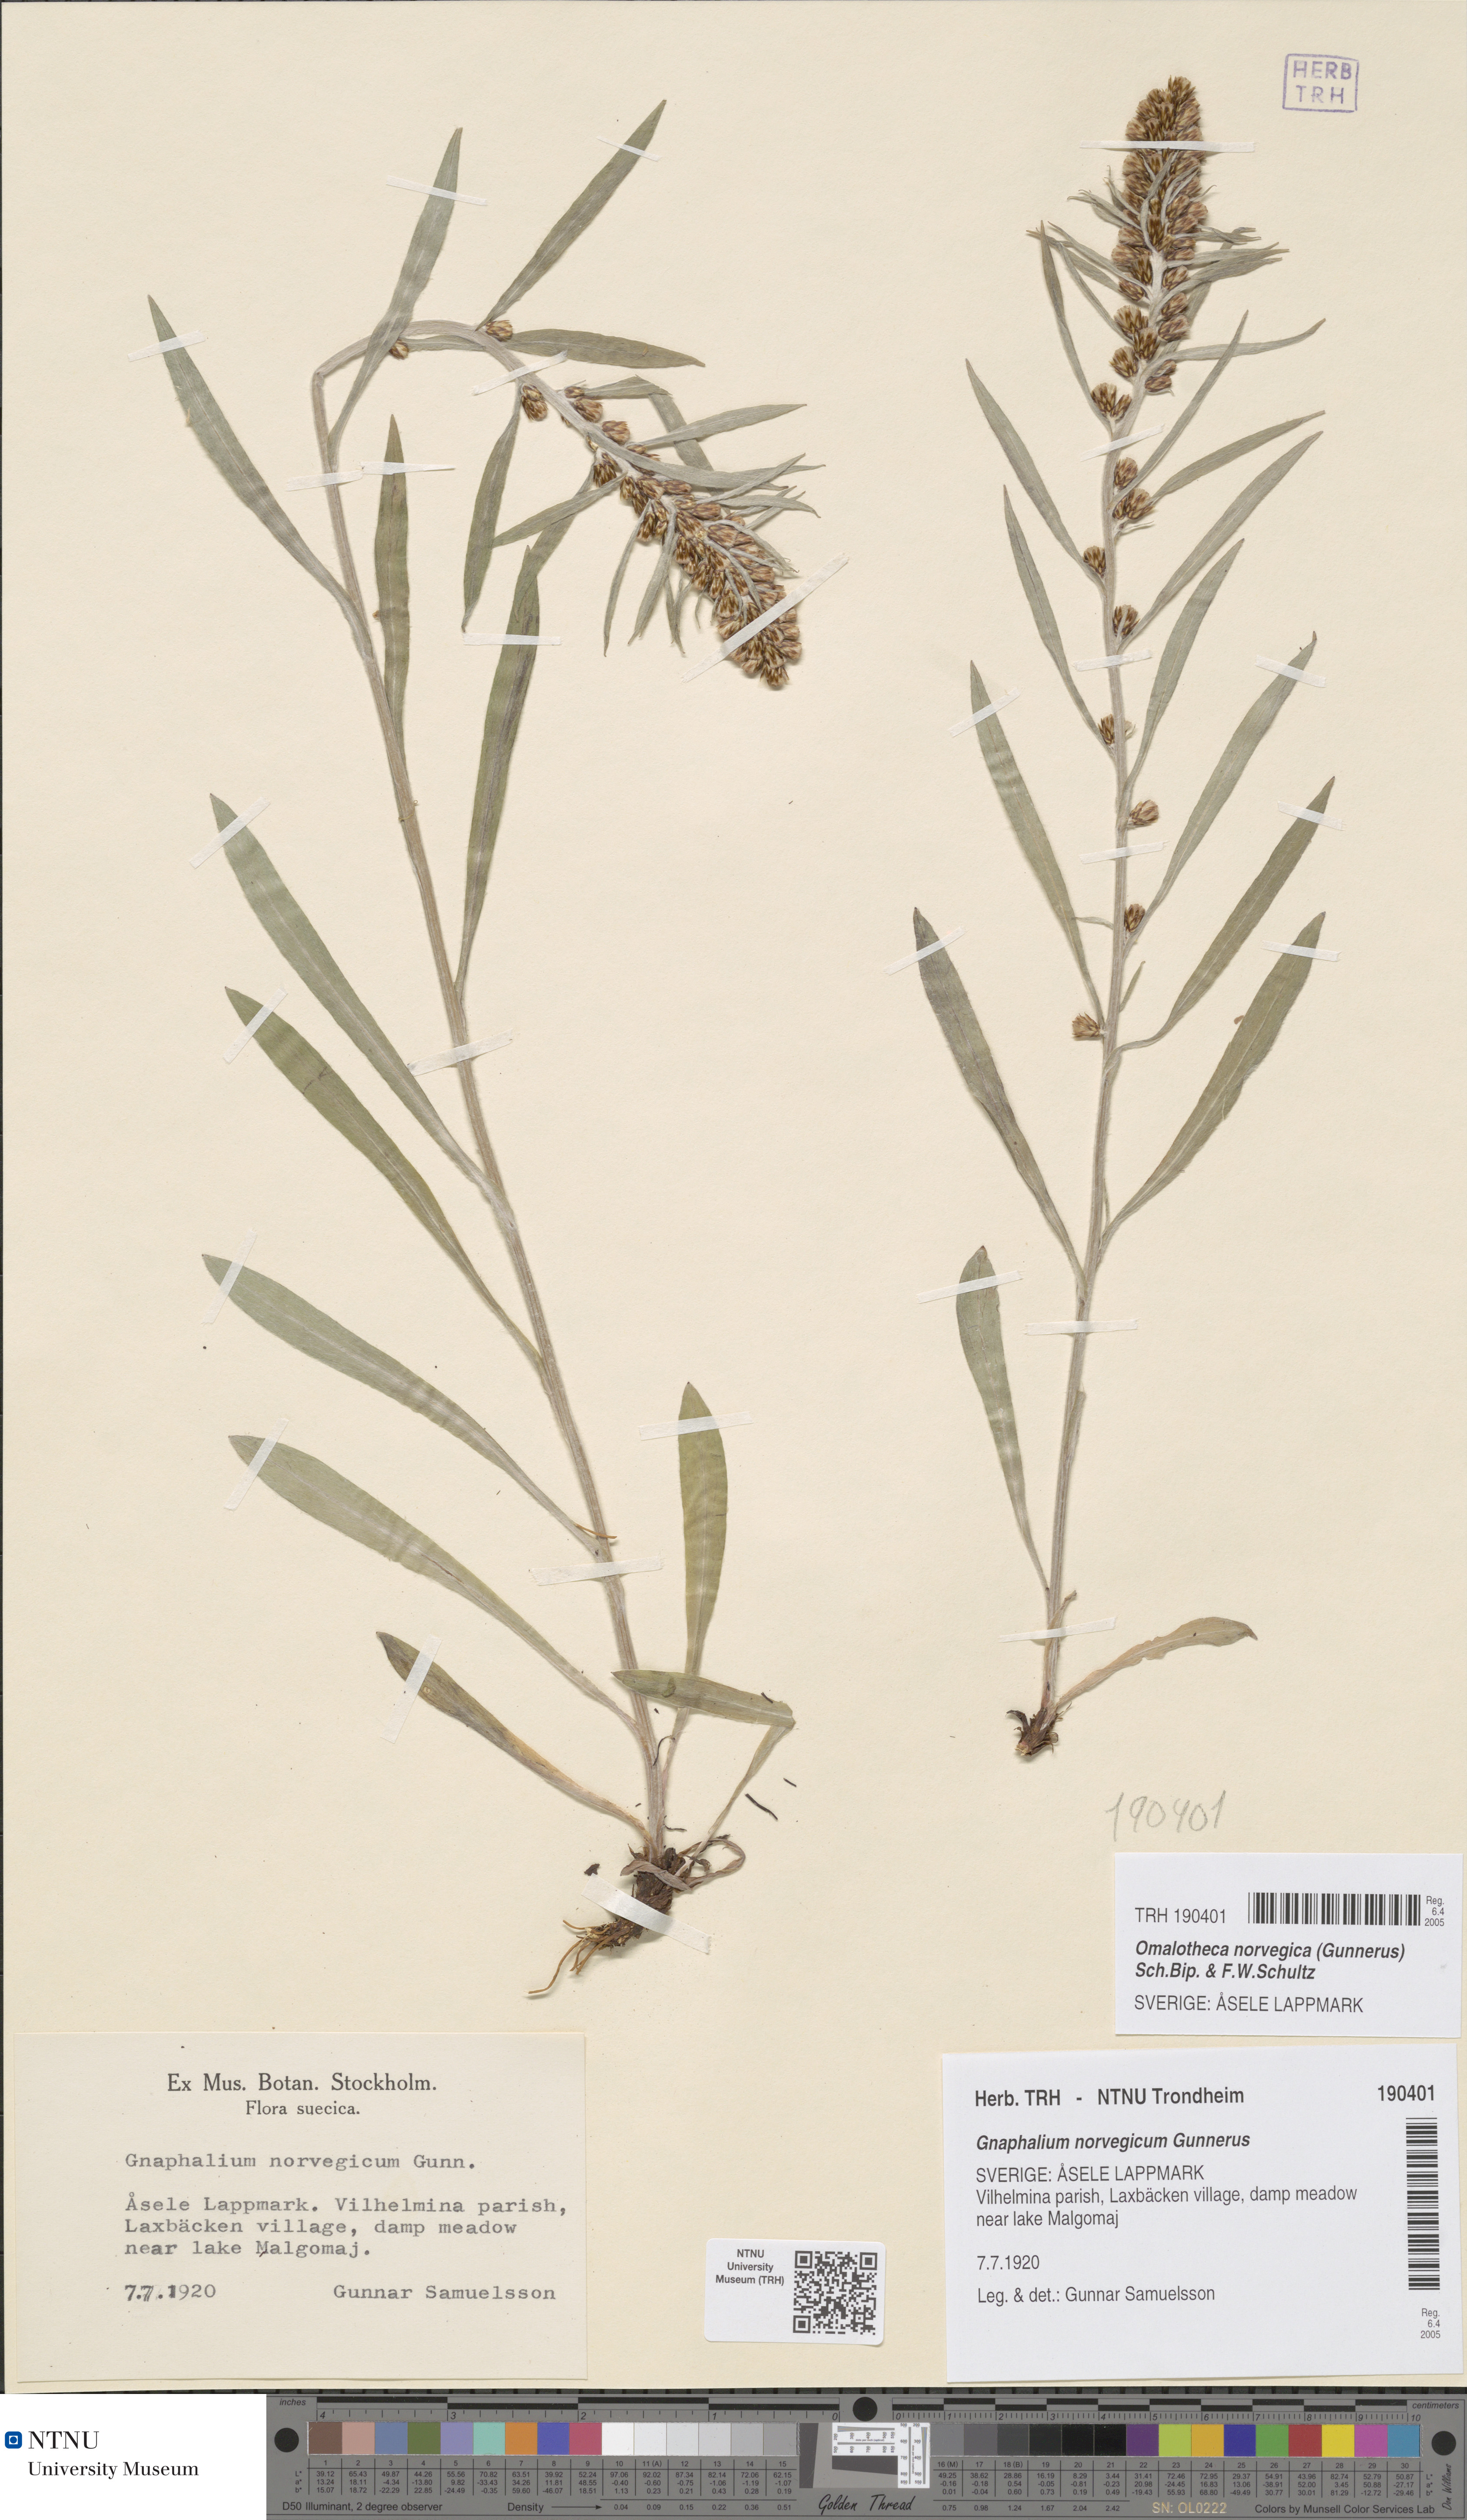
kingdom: Plantae
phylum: Tracheophyta
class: Magnoliopsida
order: Asterales
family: Asteraceae
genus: Omalotheca
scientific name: Omalotheca norvegica
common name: Norwegian arctic-cudweed
